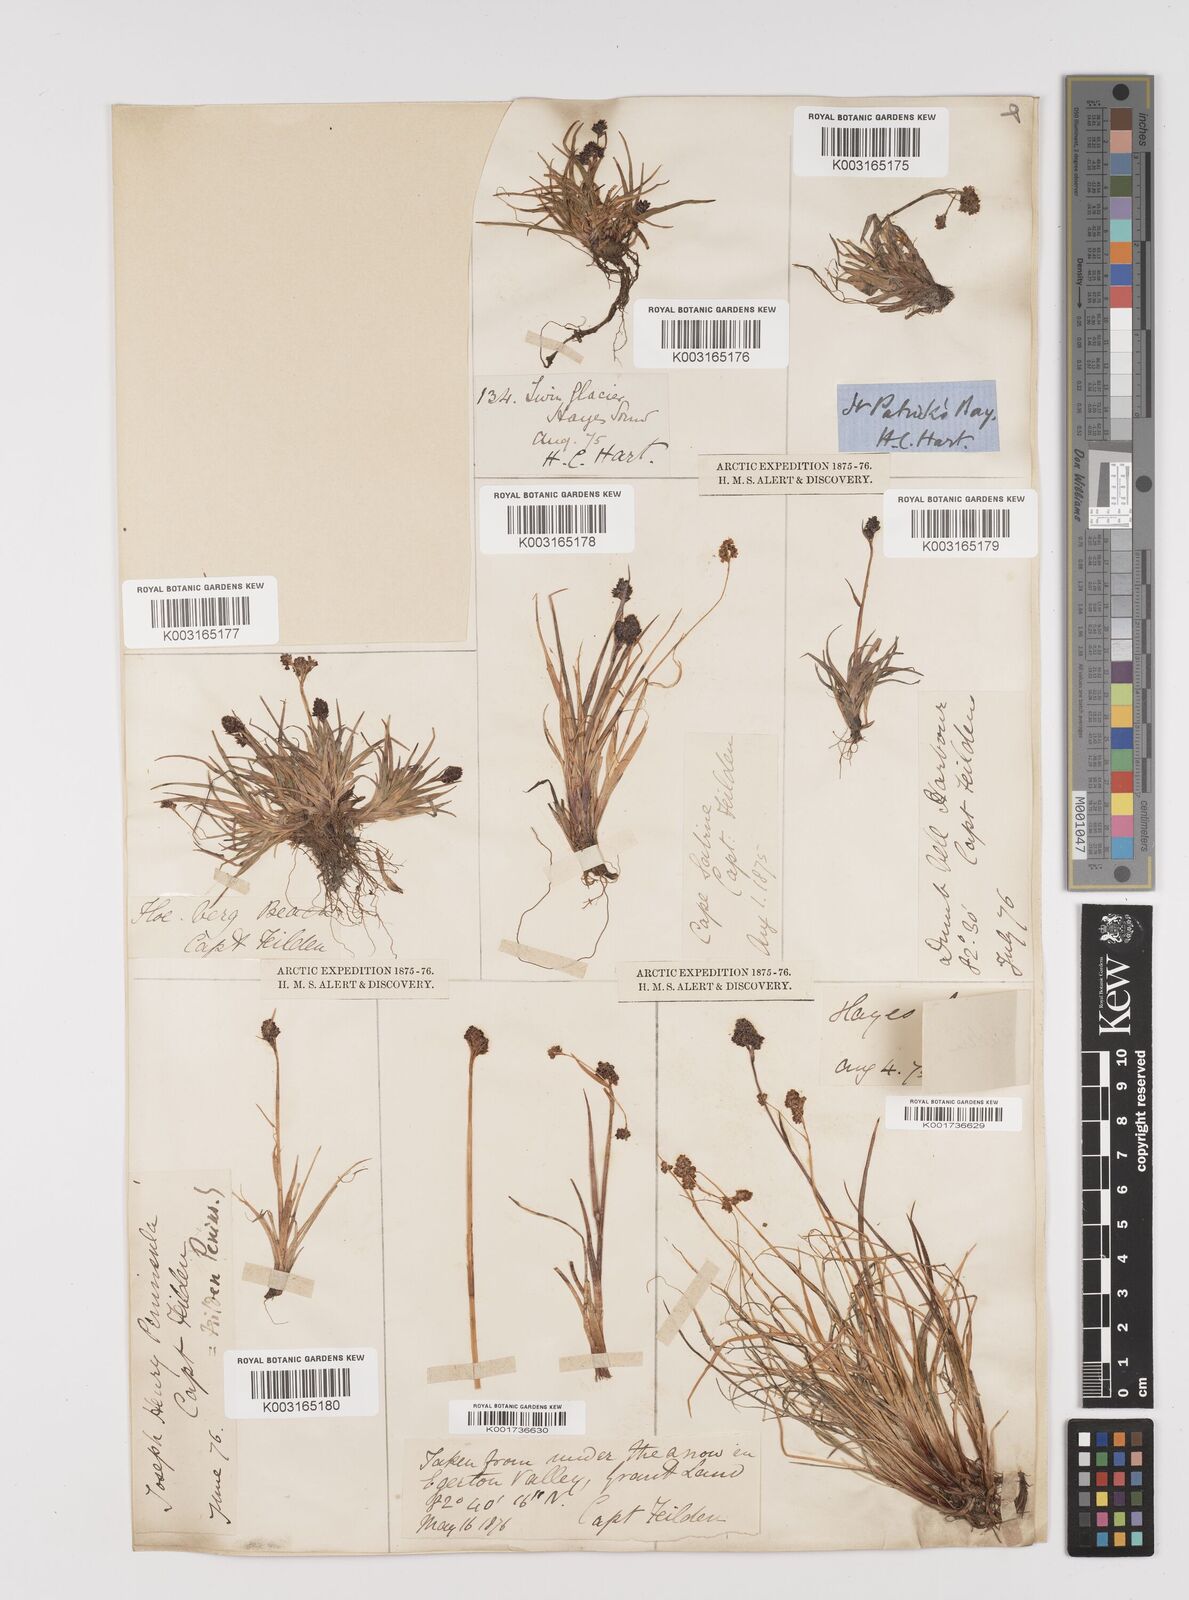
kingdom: Plantae
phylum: Tracheophyta
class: Liliopsida
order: Poales
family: Juncaceae
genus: Luzula
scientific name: Luzula
